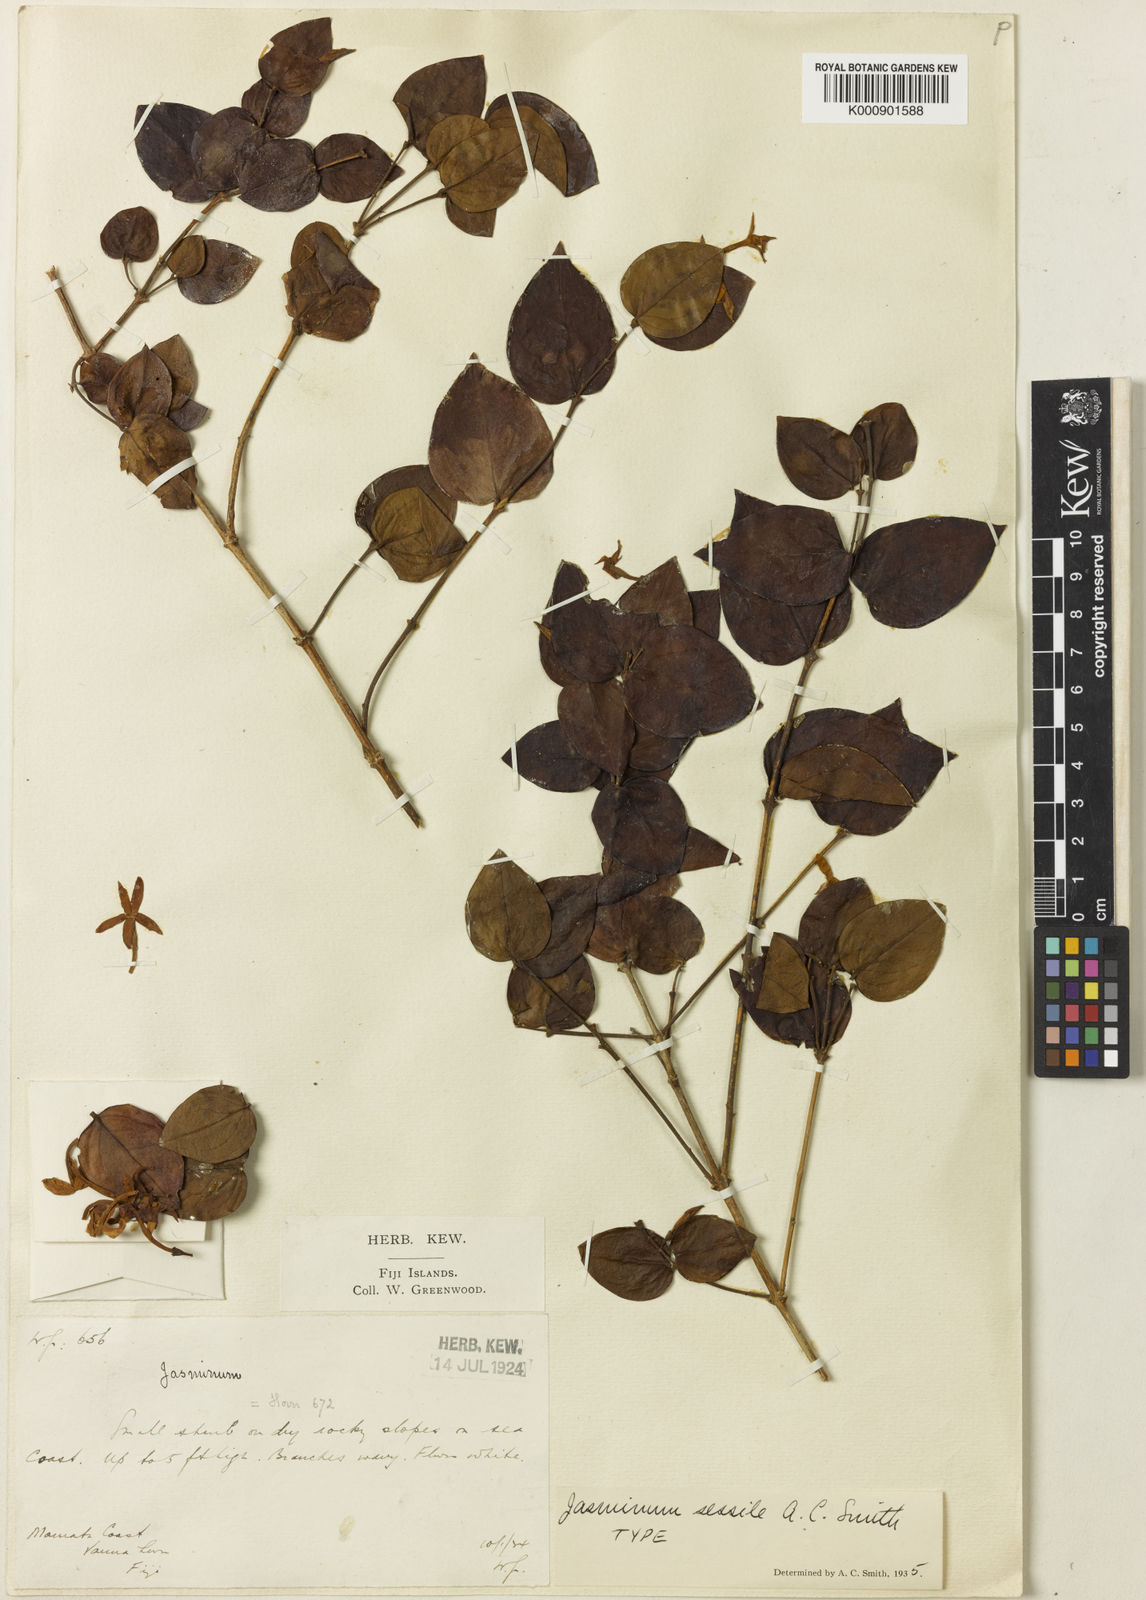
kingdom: Plantae
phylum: Tracheophyta
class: Magnoliopsida
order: Lamiales
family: Oleaceae
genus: Jasminum
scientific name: Jasminum
